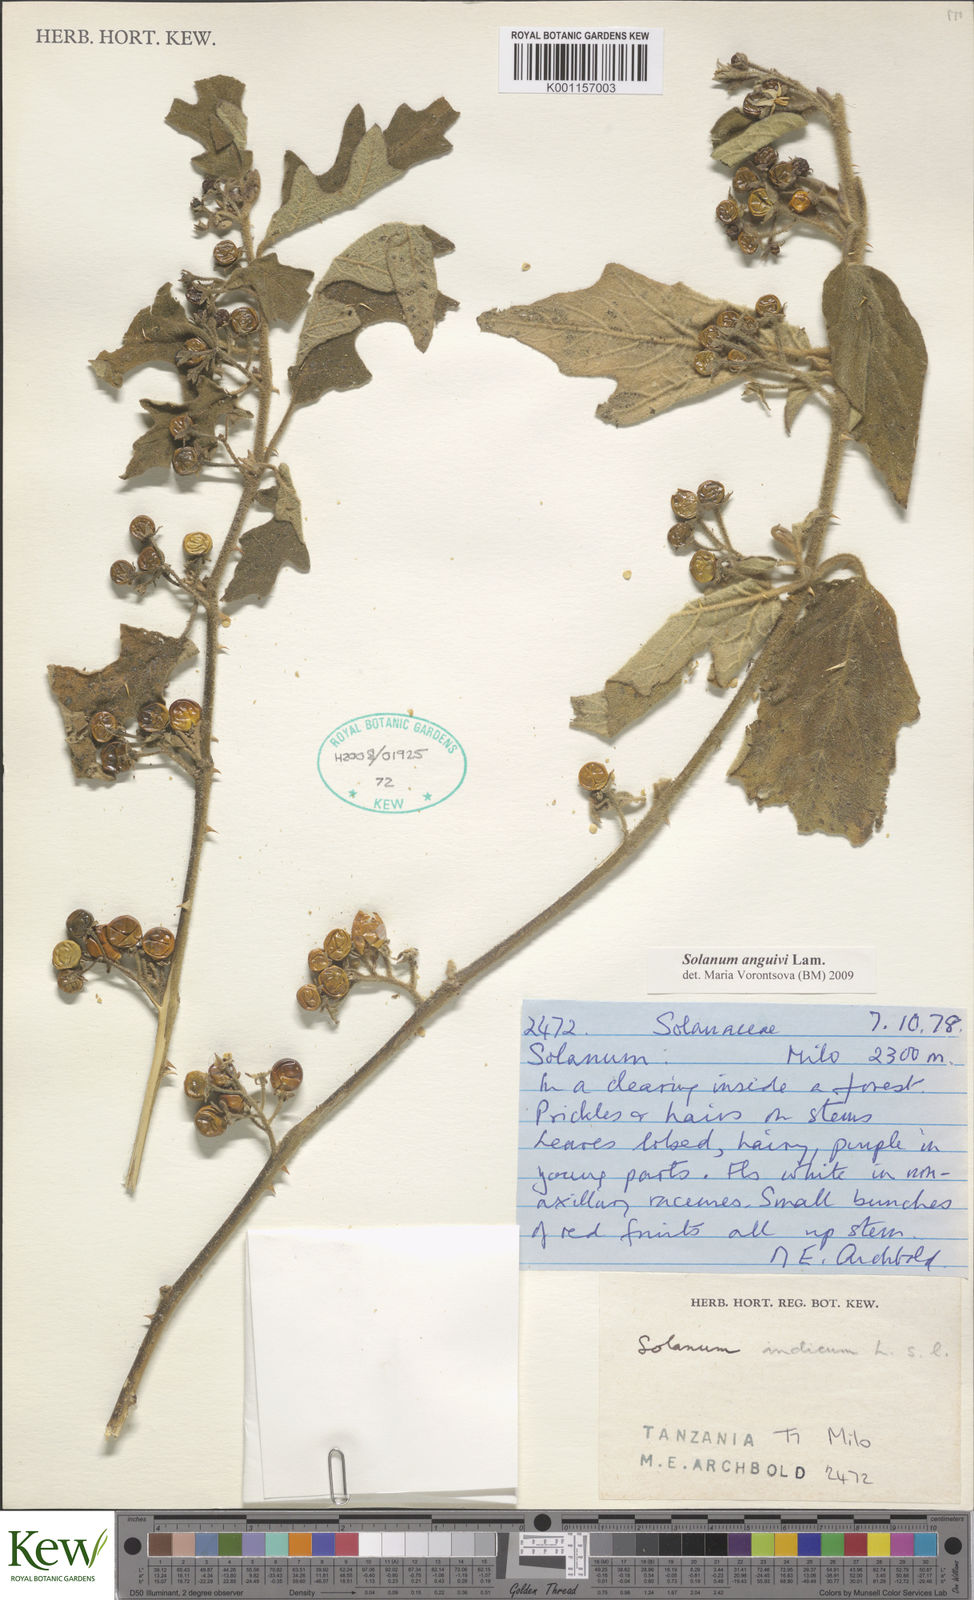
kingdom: Plantae
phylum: Tracheophyta
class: Magnoliopsida
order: Solanales
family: Solanaceae
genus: Solanum
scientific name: Solanum anguivi
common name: Forest bitterberry
